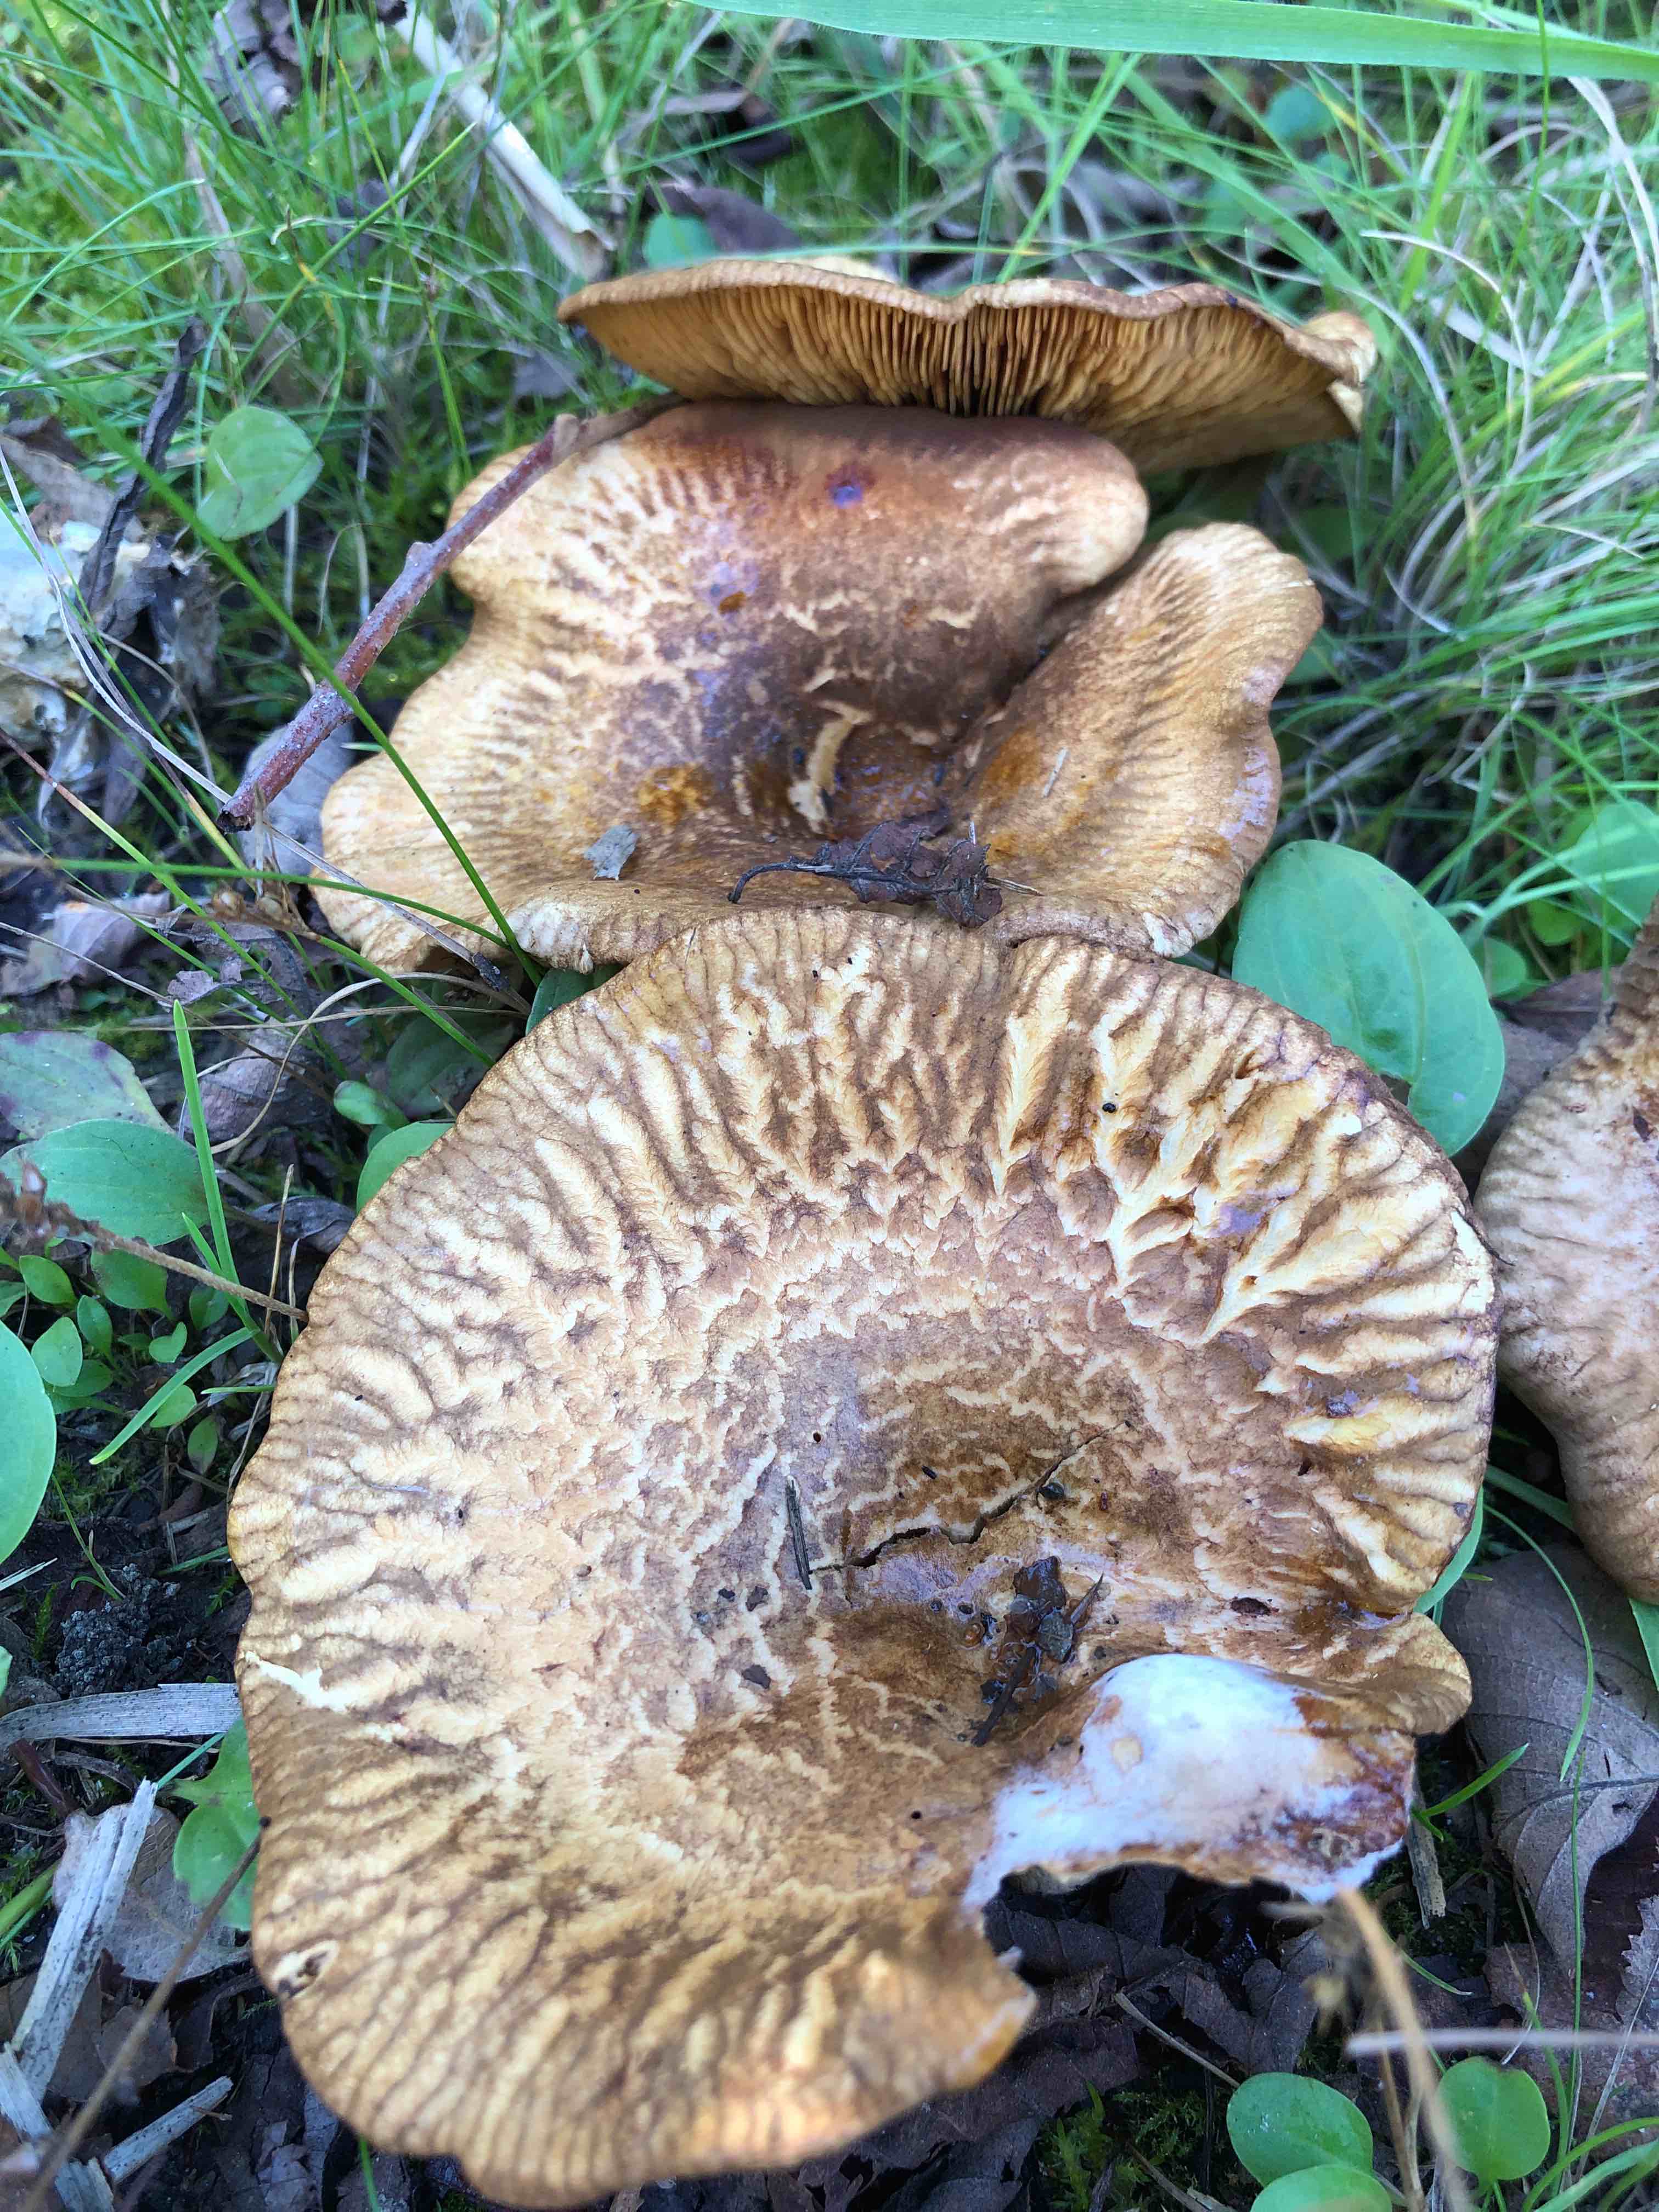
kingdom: Fungi
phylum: Basidiomycota
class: Agaricomycetes
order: Boletales
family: Paxillaceae
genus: Paxillus
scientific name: Paxillus rubicundulus
